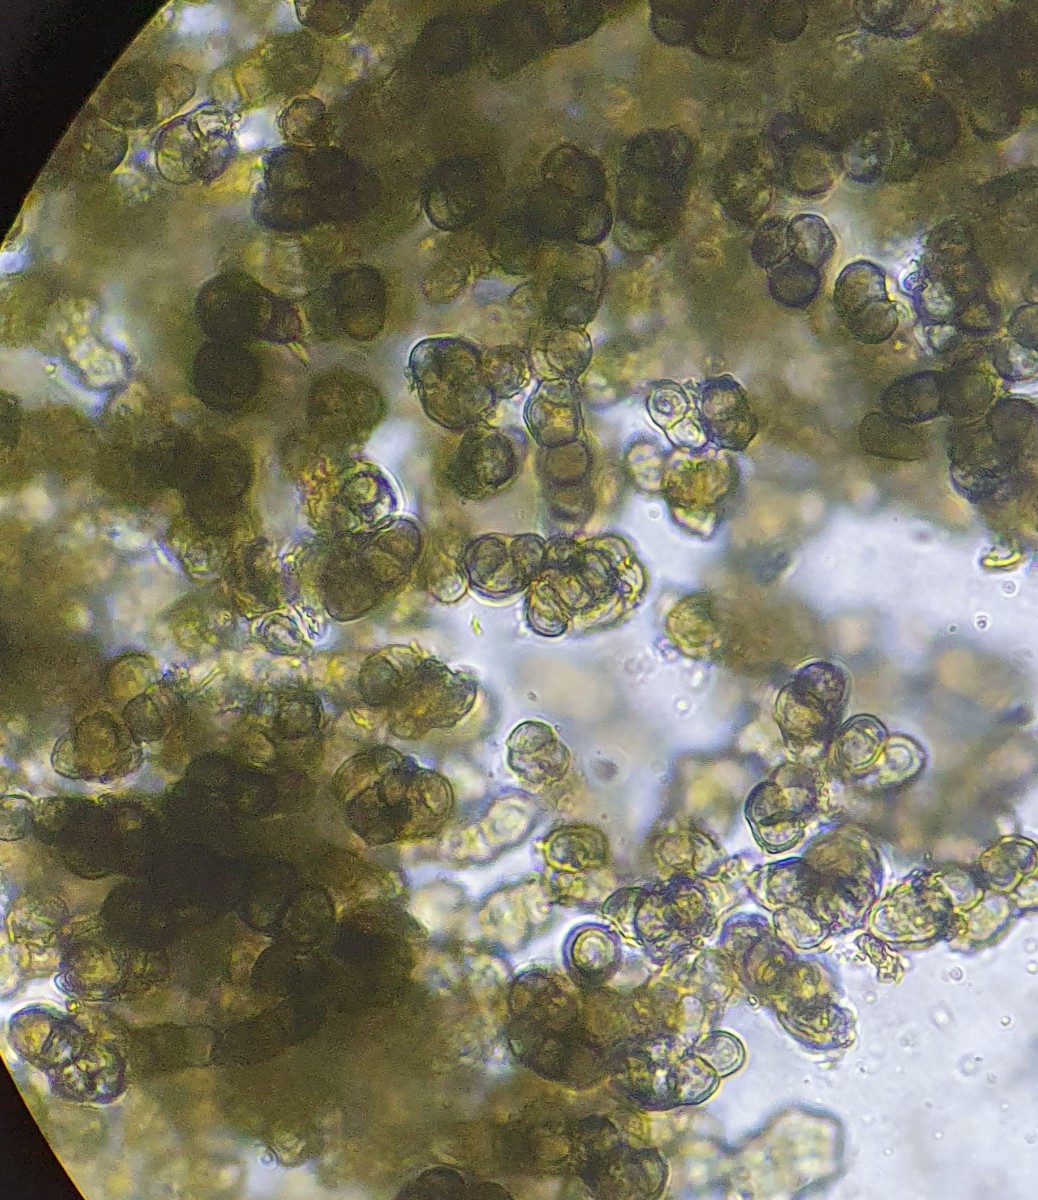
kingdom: Fungi
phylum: Ascomycota
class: Leotiomycetes
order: Helotiales
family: Mollisiaceae
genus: Trimmatostroma
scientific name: Trimmatostroma betulinum
